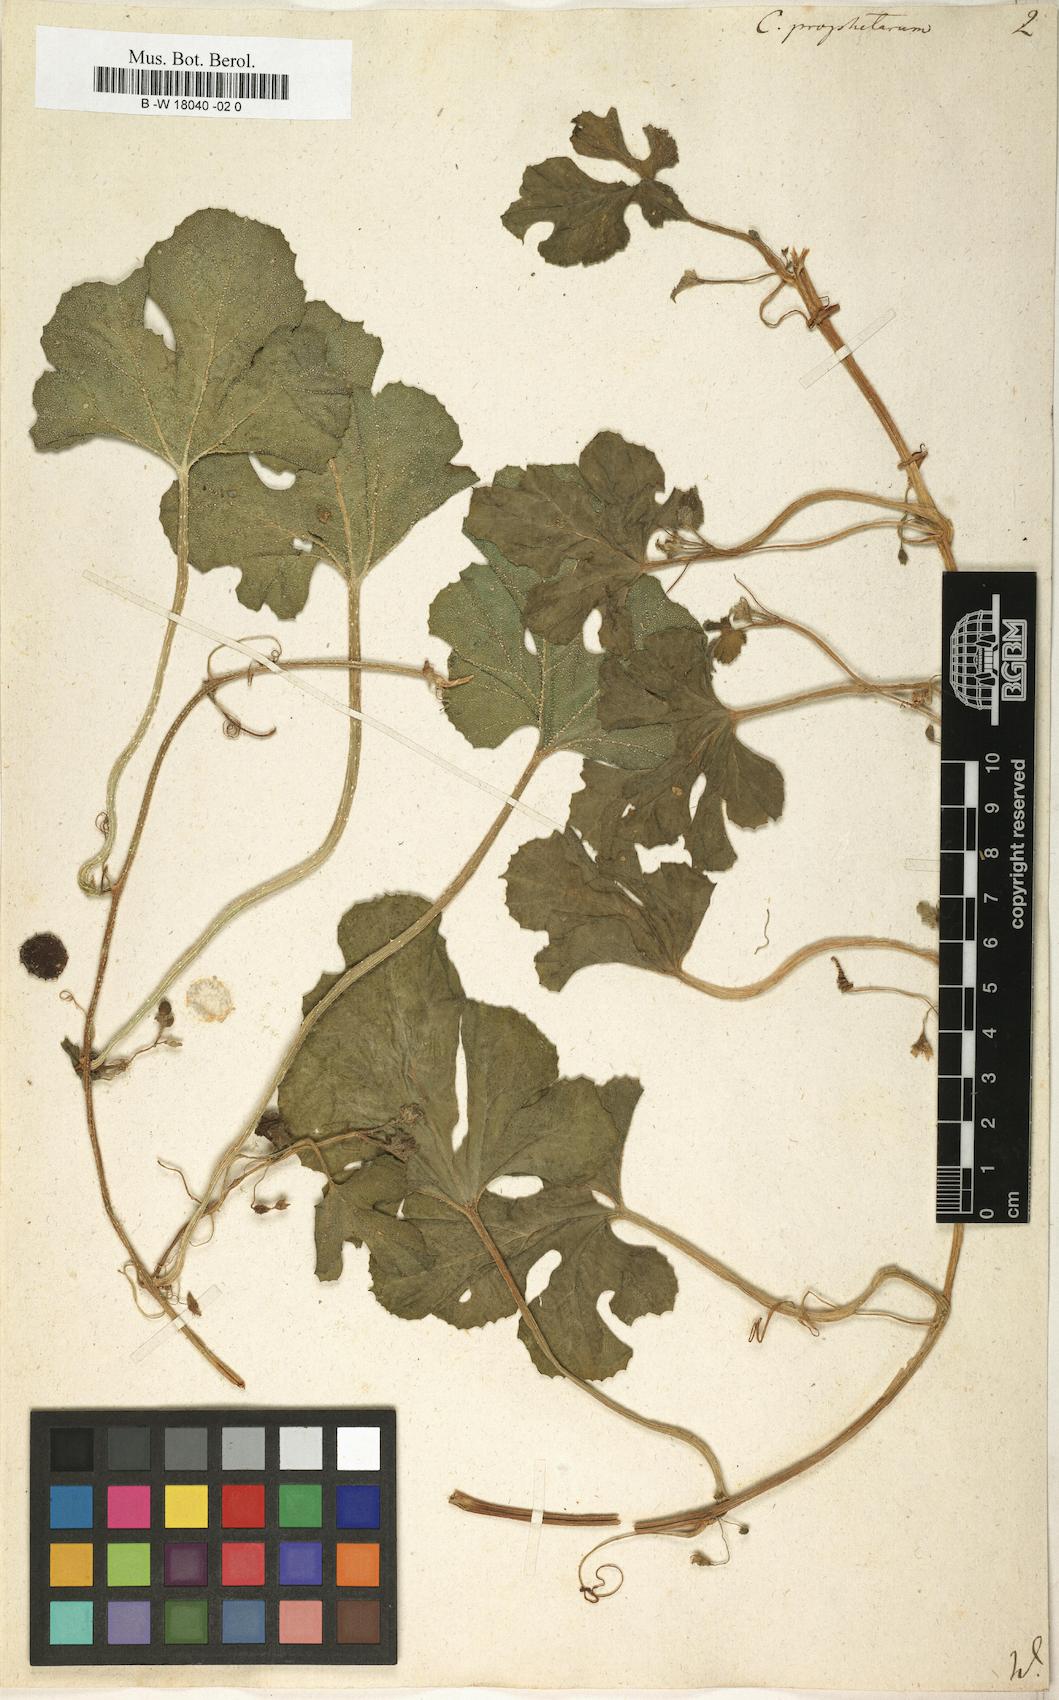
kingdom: Plantae
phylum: Tracheophyta
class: Magnoliopsida
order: Cucurbitales
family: Cucurbitaceae
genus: Cucumis
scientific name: Cucumis prophetarum
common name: Wild cucumber
